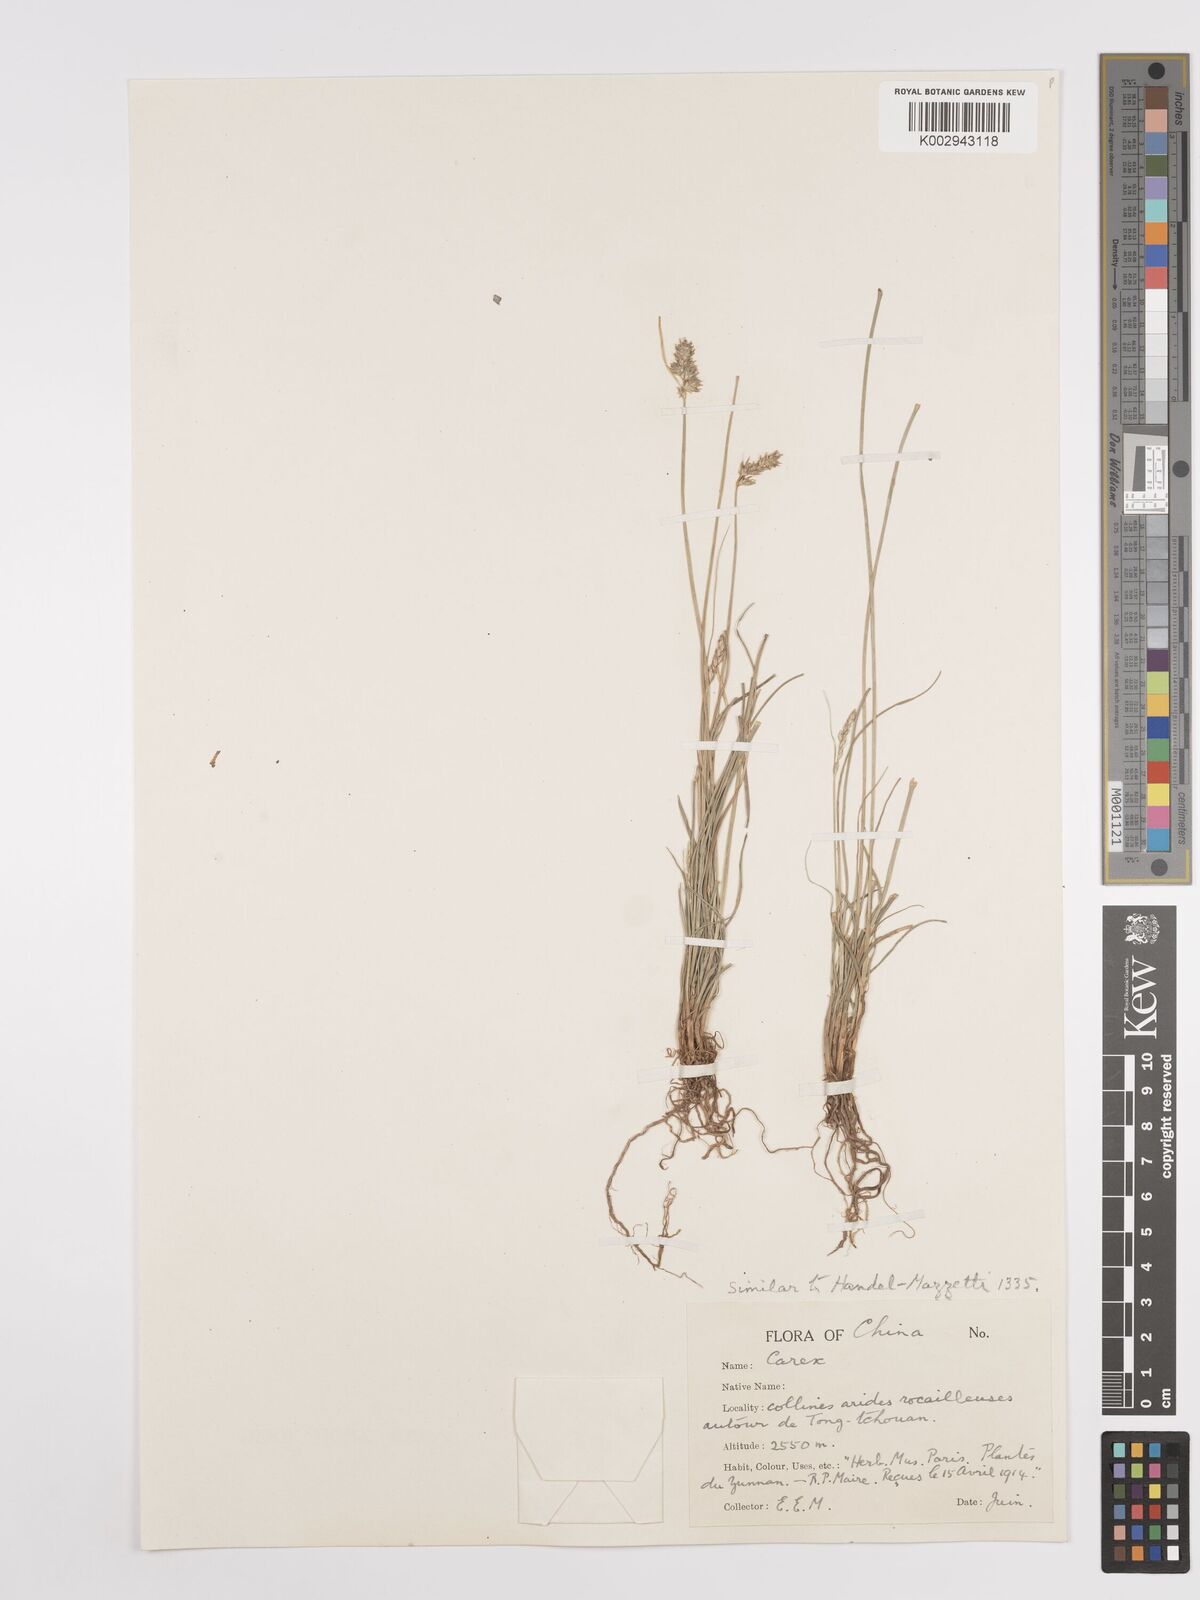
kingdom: Plantae
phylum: Tracheophyta
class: Liliopsida
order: Poales
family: Cyperaceae
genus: Carex
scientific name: Carex
